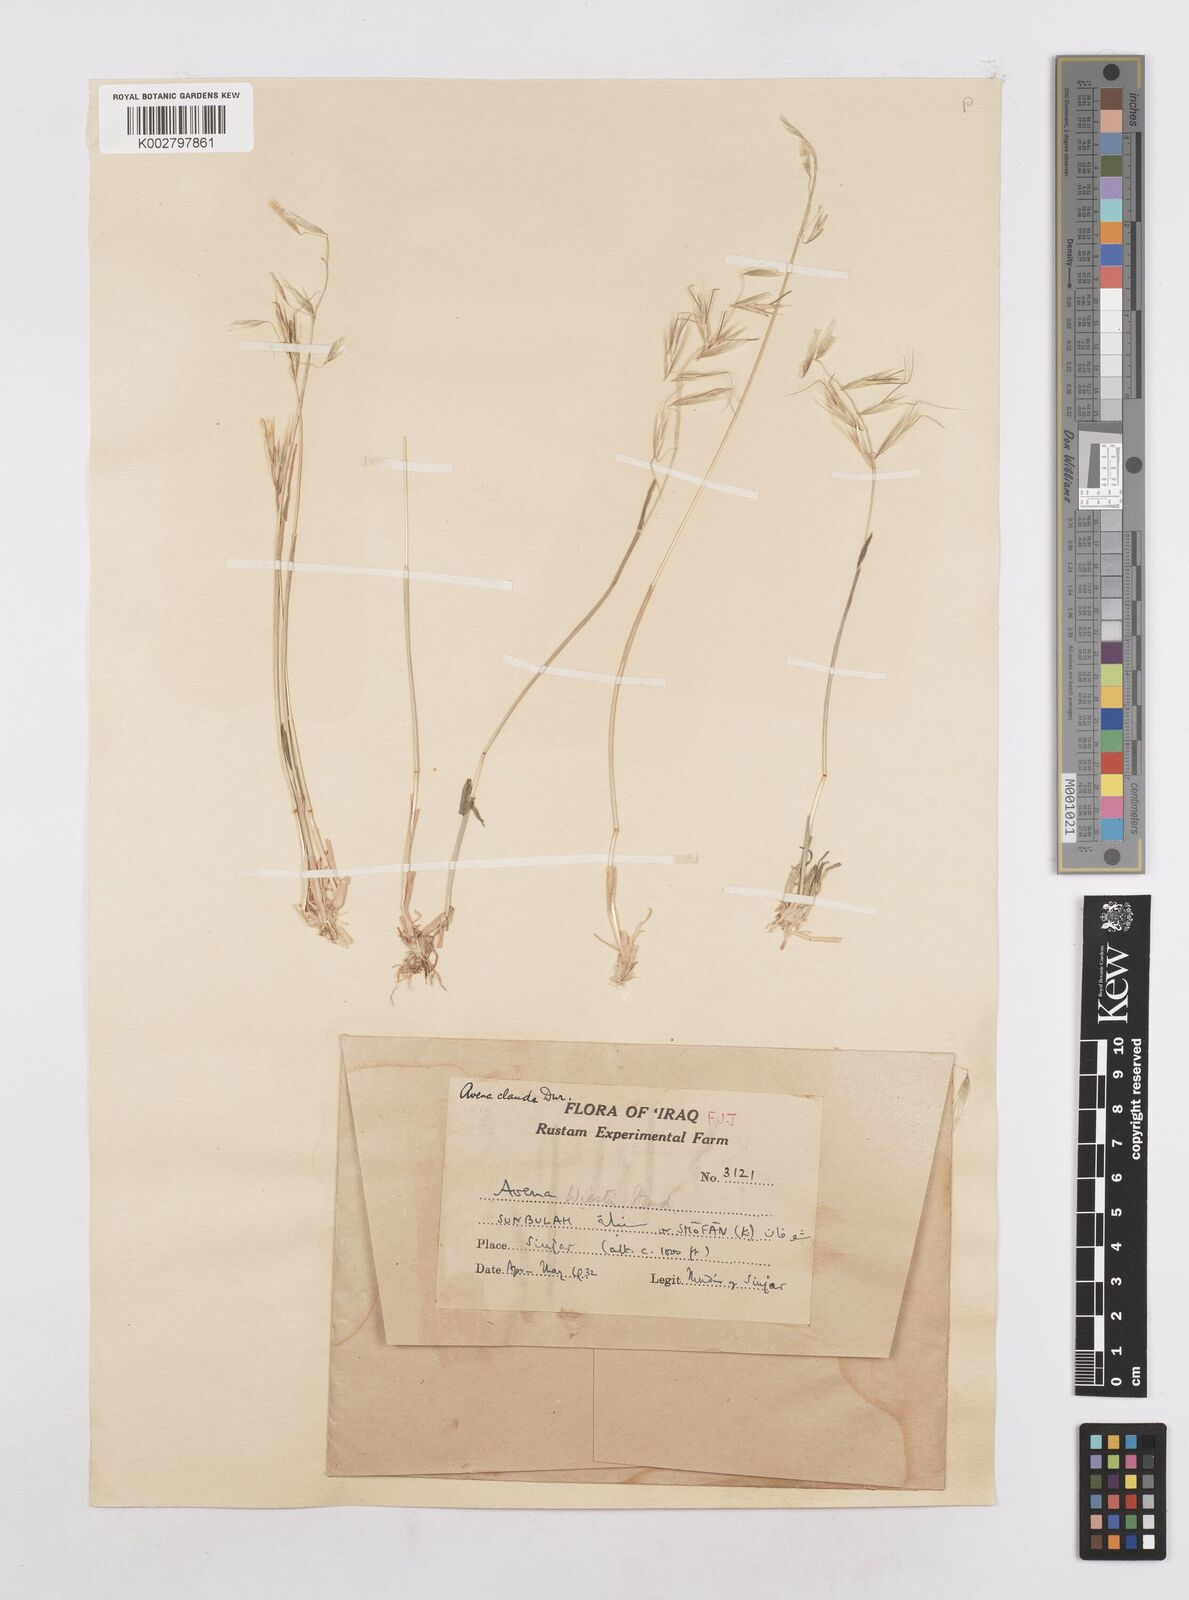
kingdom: Plantae
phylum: Tracheophyta
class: Liliopsida
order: Poales
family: Poaceae
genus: Avena
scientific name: Avena clauda
